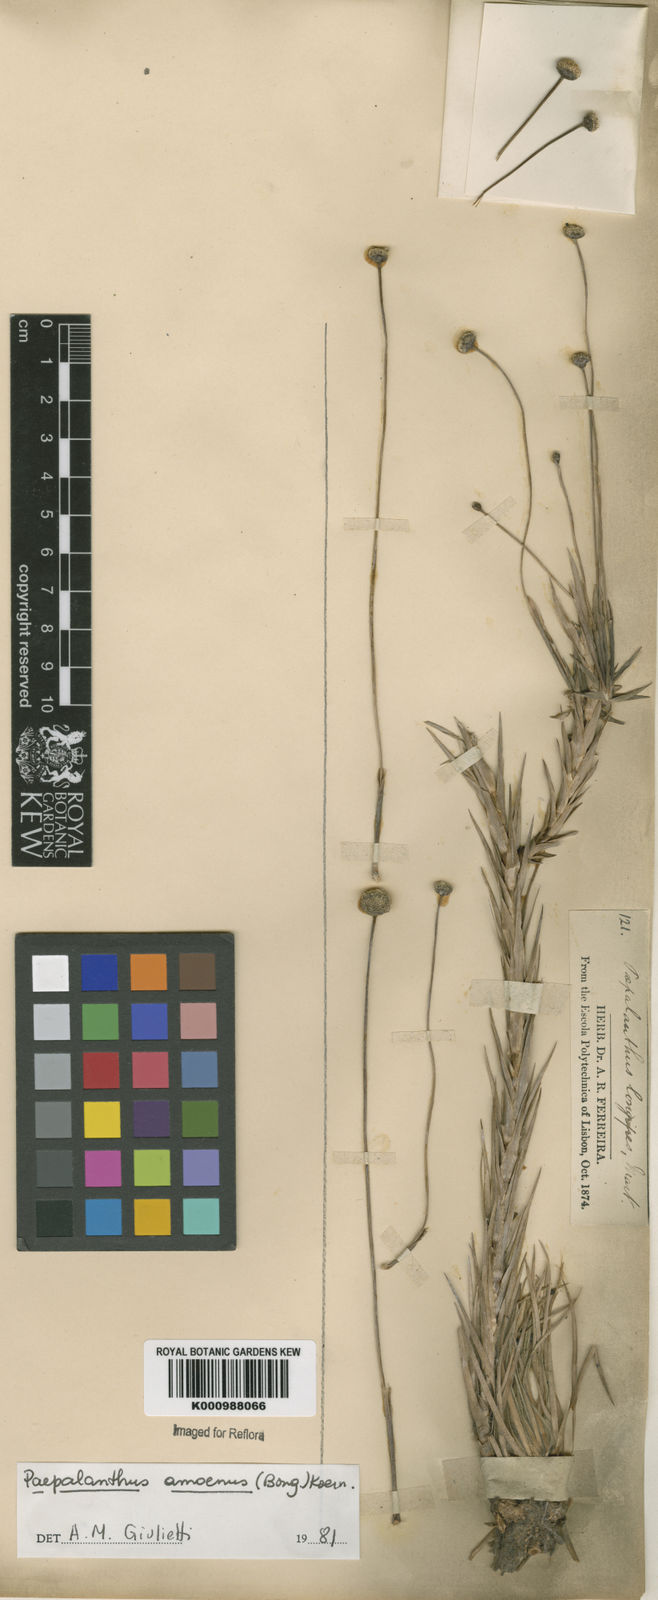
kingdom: Plantae
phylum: Tracheophyta
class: Liliopsida
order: Poales
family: Eriocaulaceae
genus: Paepalanthus
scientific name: Paepalanthus
